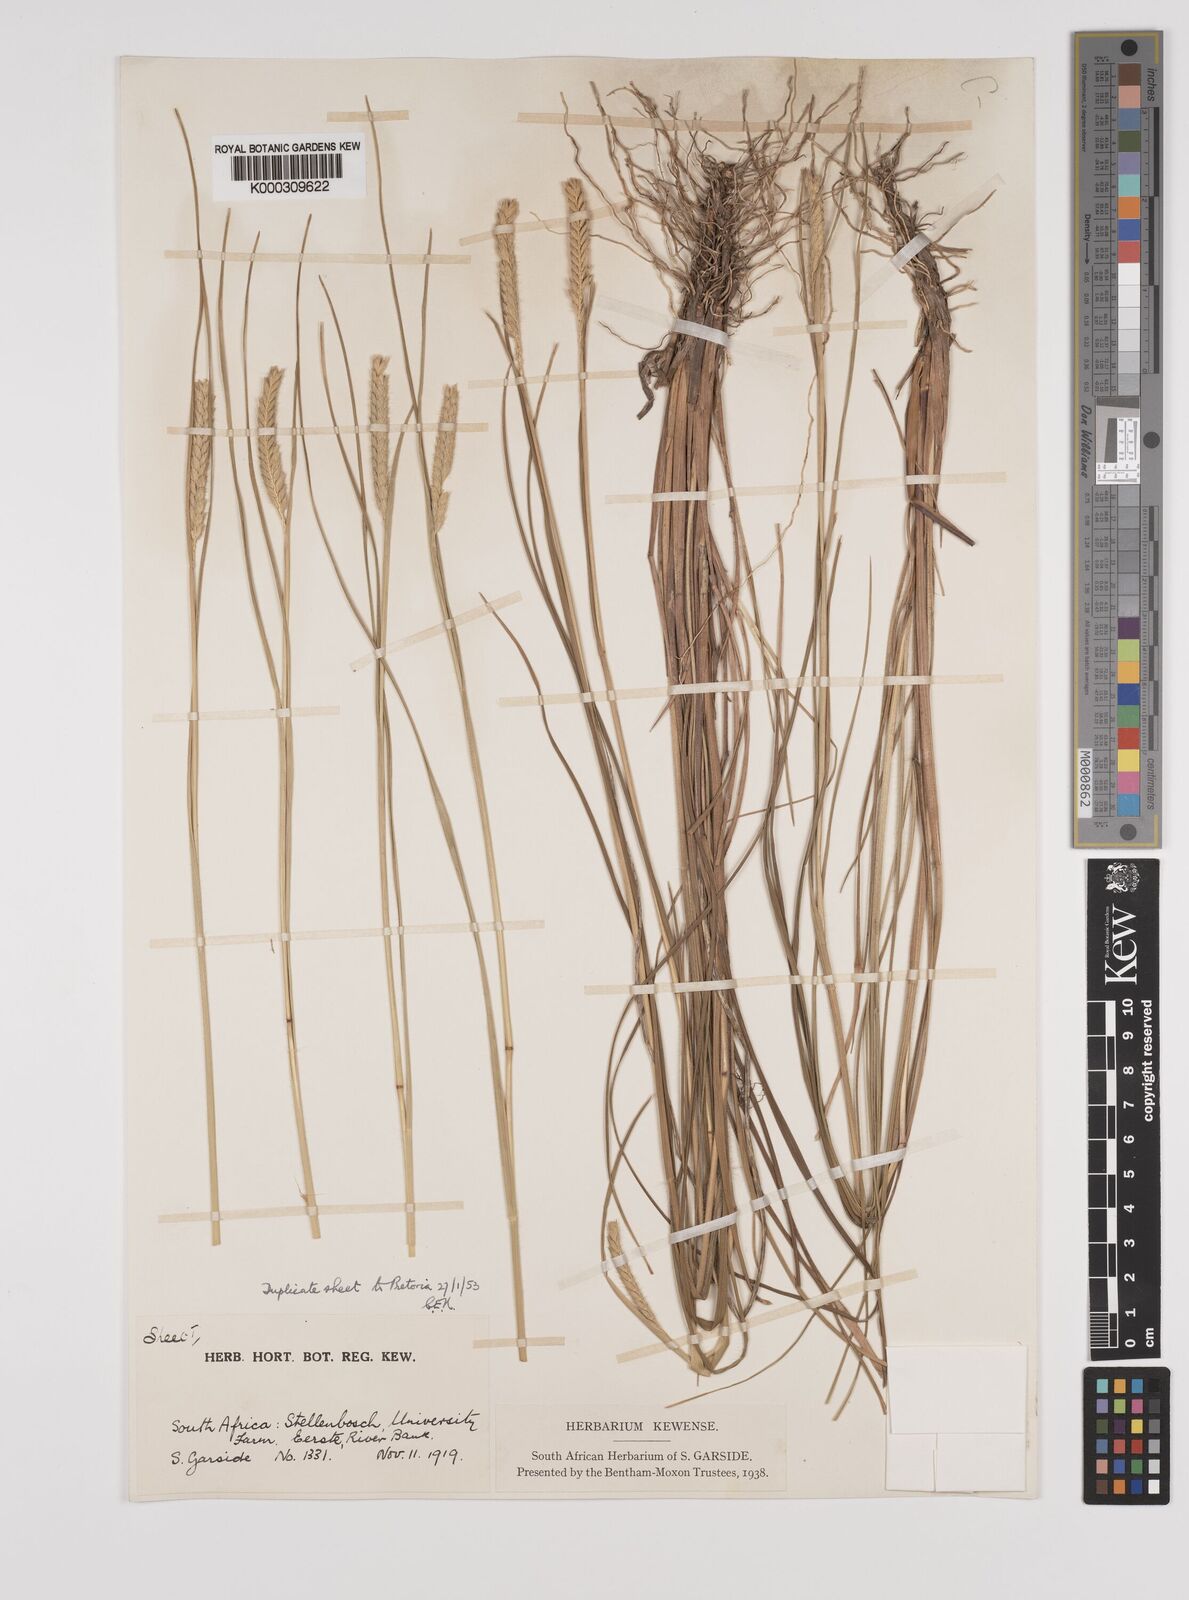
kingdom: Plantae
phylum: Tracheophyta
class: Liliopsida
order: Poales
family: Poaceae
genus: Tribolium
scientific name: Tribolium uniolae
